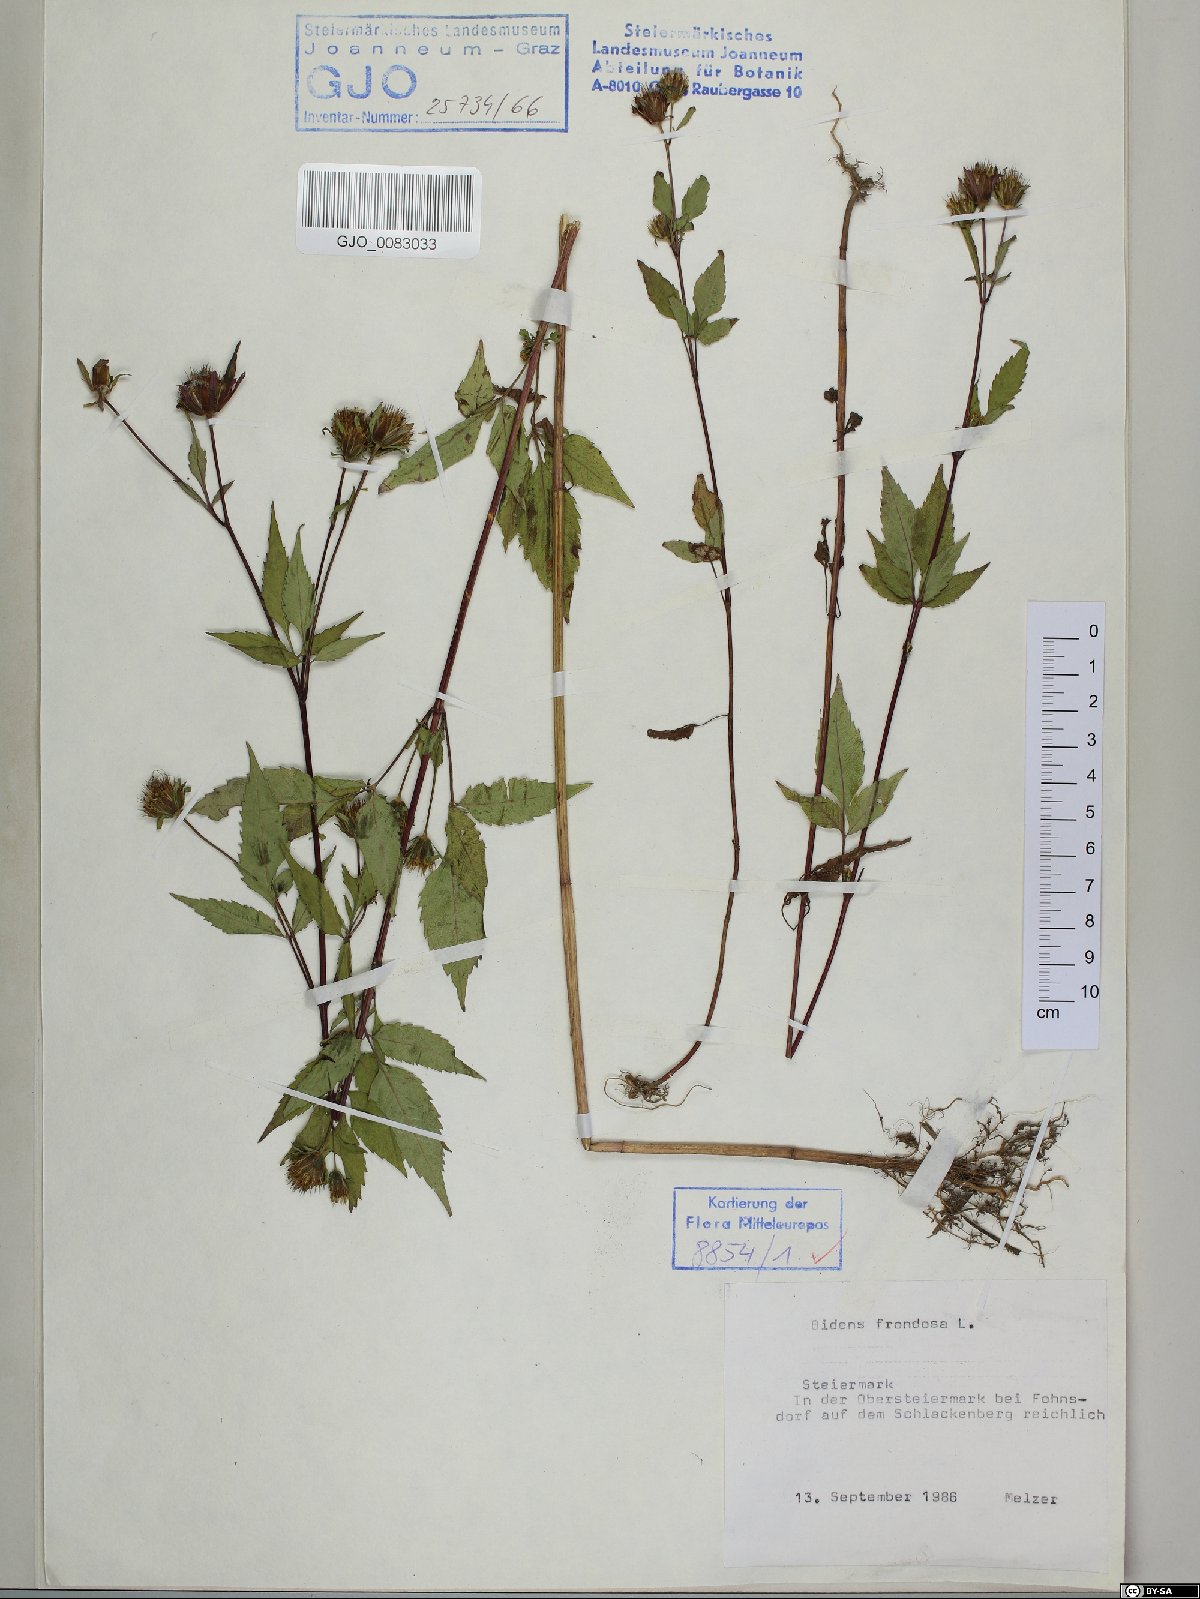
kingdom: Plantae
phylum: Tracheophyta
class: Magnoliopsida
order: Asterales
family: Asteraceae
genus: Bidens
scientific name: Bidens frondosa
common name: Beggarticks
